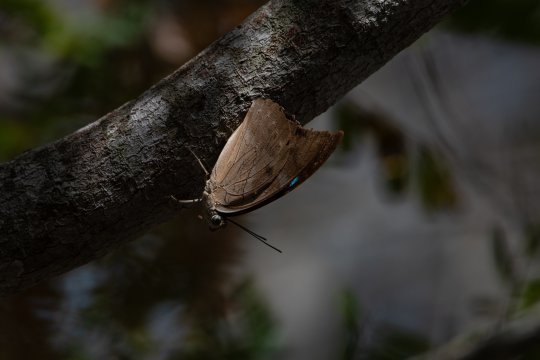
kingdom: Animalia
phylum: Arthropoda
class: Insecta
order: Lepidoptera
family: Nymphalidae
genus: Prepona
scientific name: Prepona demophon
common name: One-spotted Prepona
